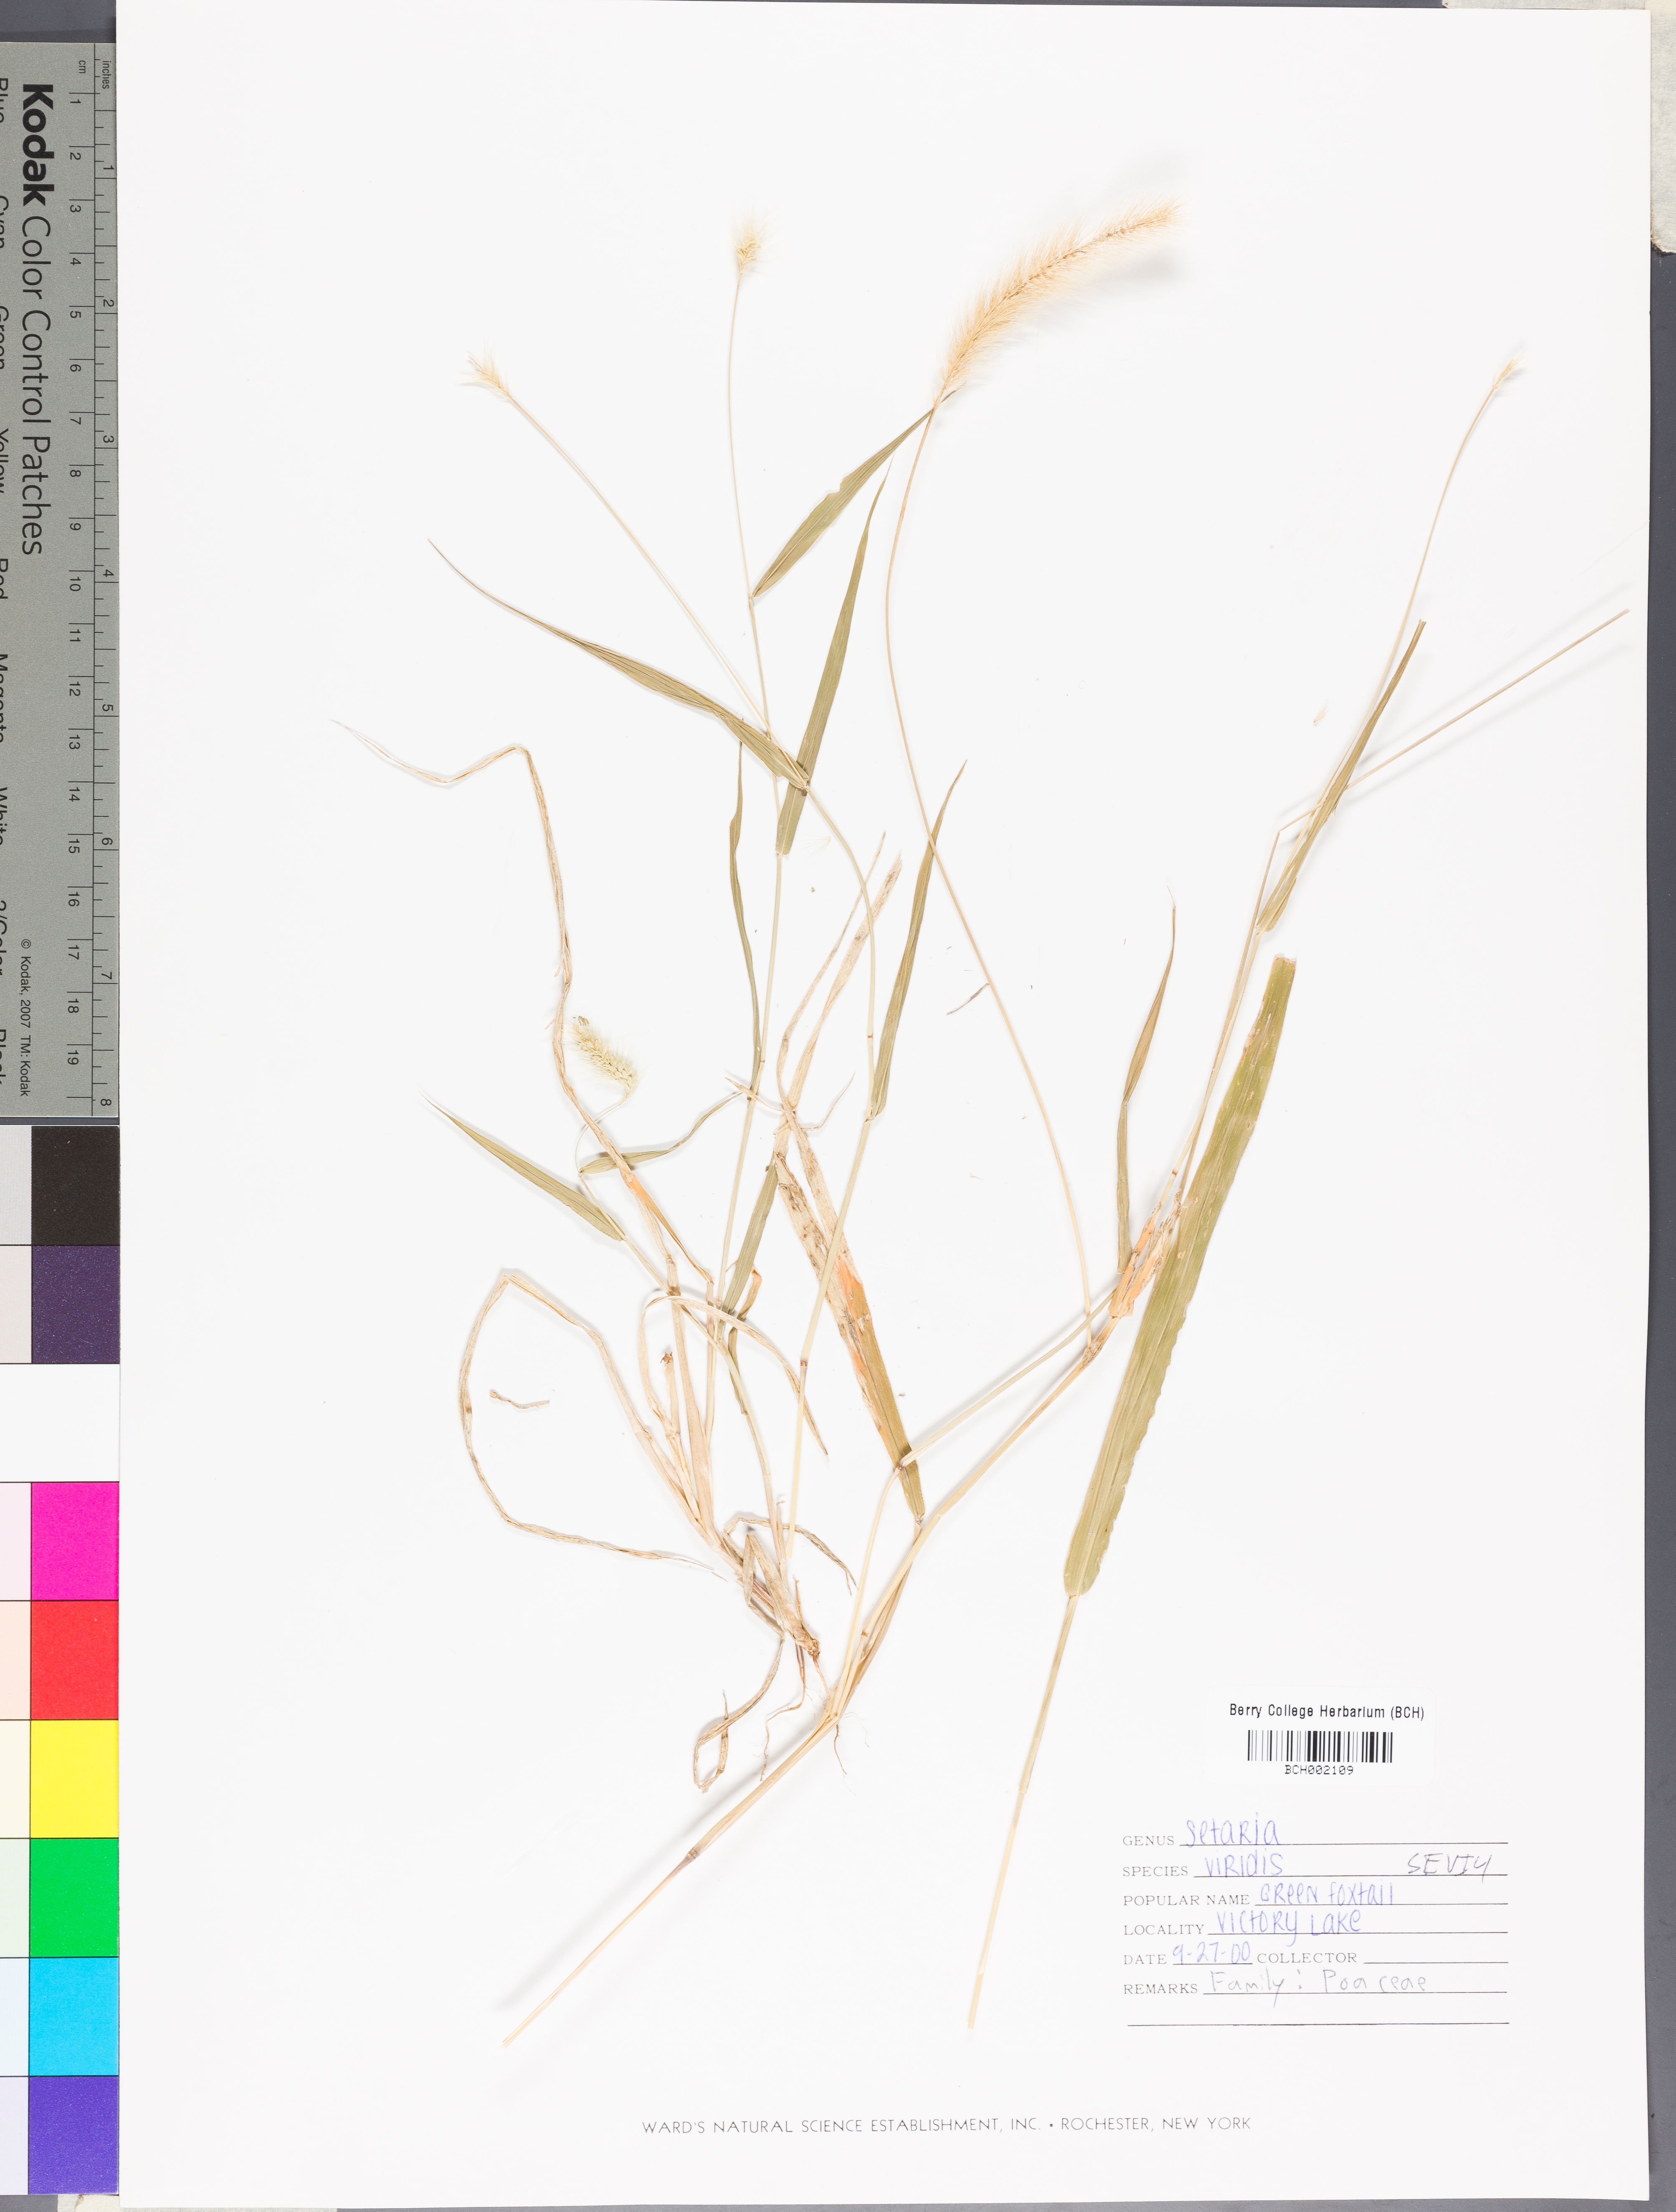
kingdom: Plantae
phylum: Tracheophyta
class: Liliopsida
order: Poales
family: Poaceae
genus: Setaria
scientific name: Setaria viridis
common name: Green bristlegrass
